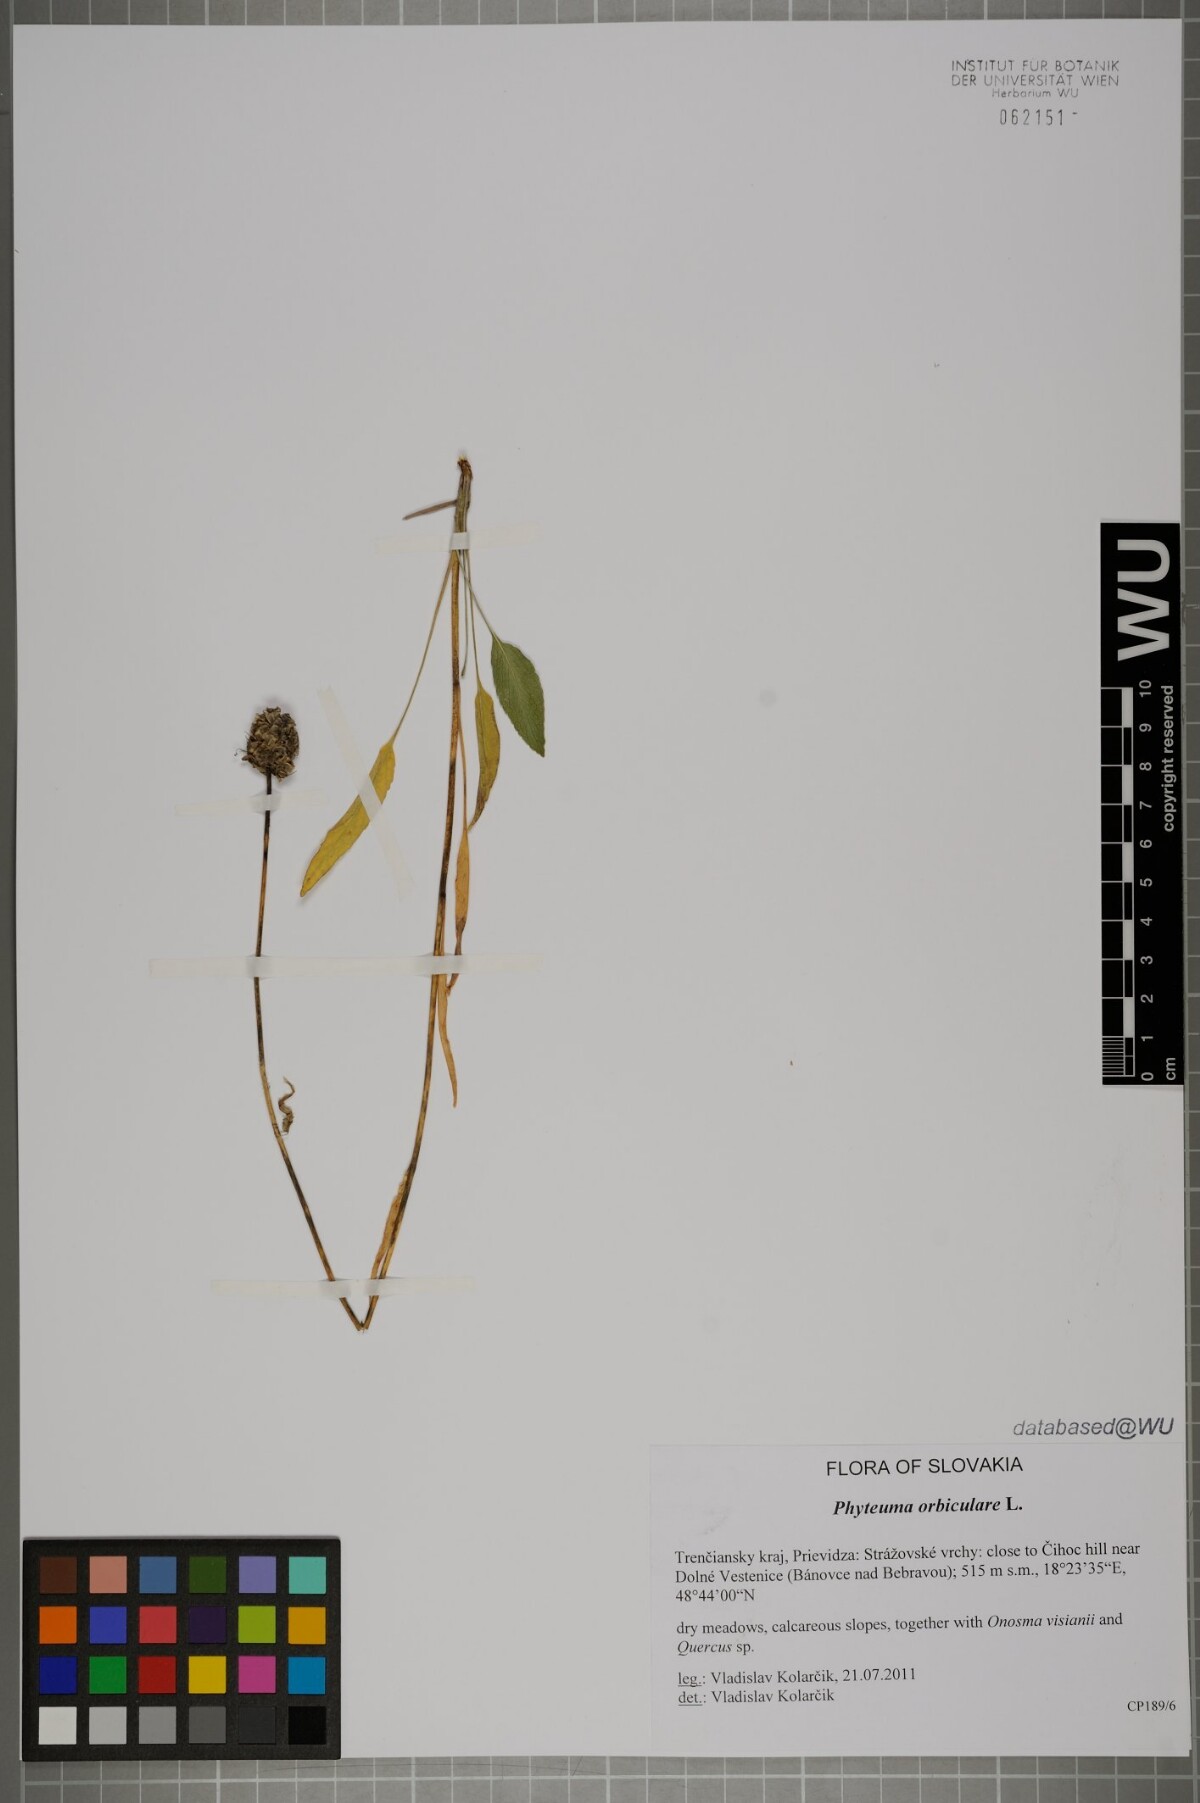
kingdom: Plantae
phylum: Tracheophyta
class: Magnoliopsida
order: Asterales
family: Campanulaceae
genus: Phyteuma
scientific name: Phyteuma orbiculare
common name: Round-headed rampion
